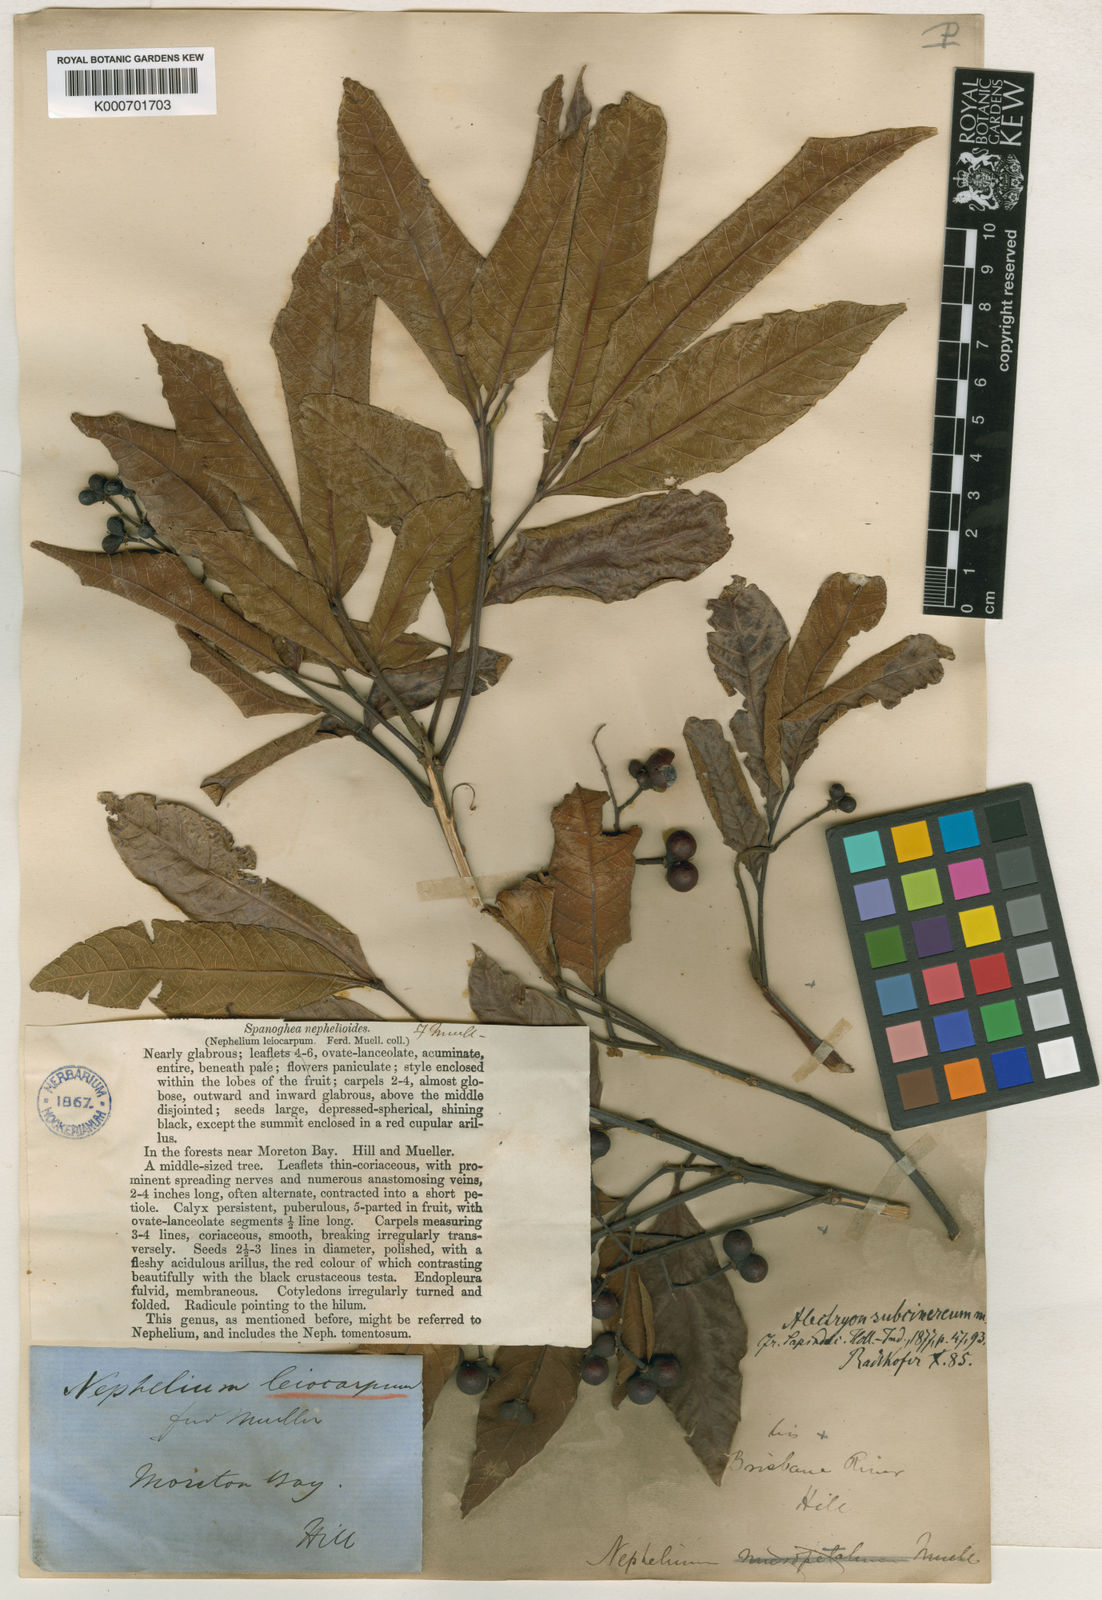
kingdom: Plantae
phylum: Tracheophyta
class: Magnoliopsida
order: Sapindales
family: Sapindaceae
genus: Alectryon
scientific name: Alectryon subcinereus
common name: Wild quince
